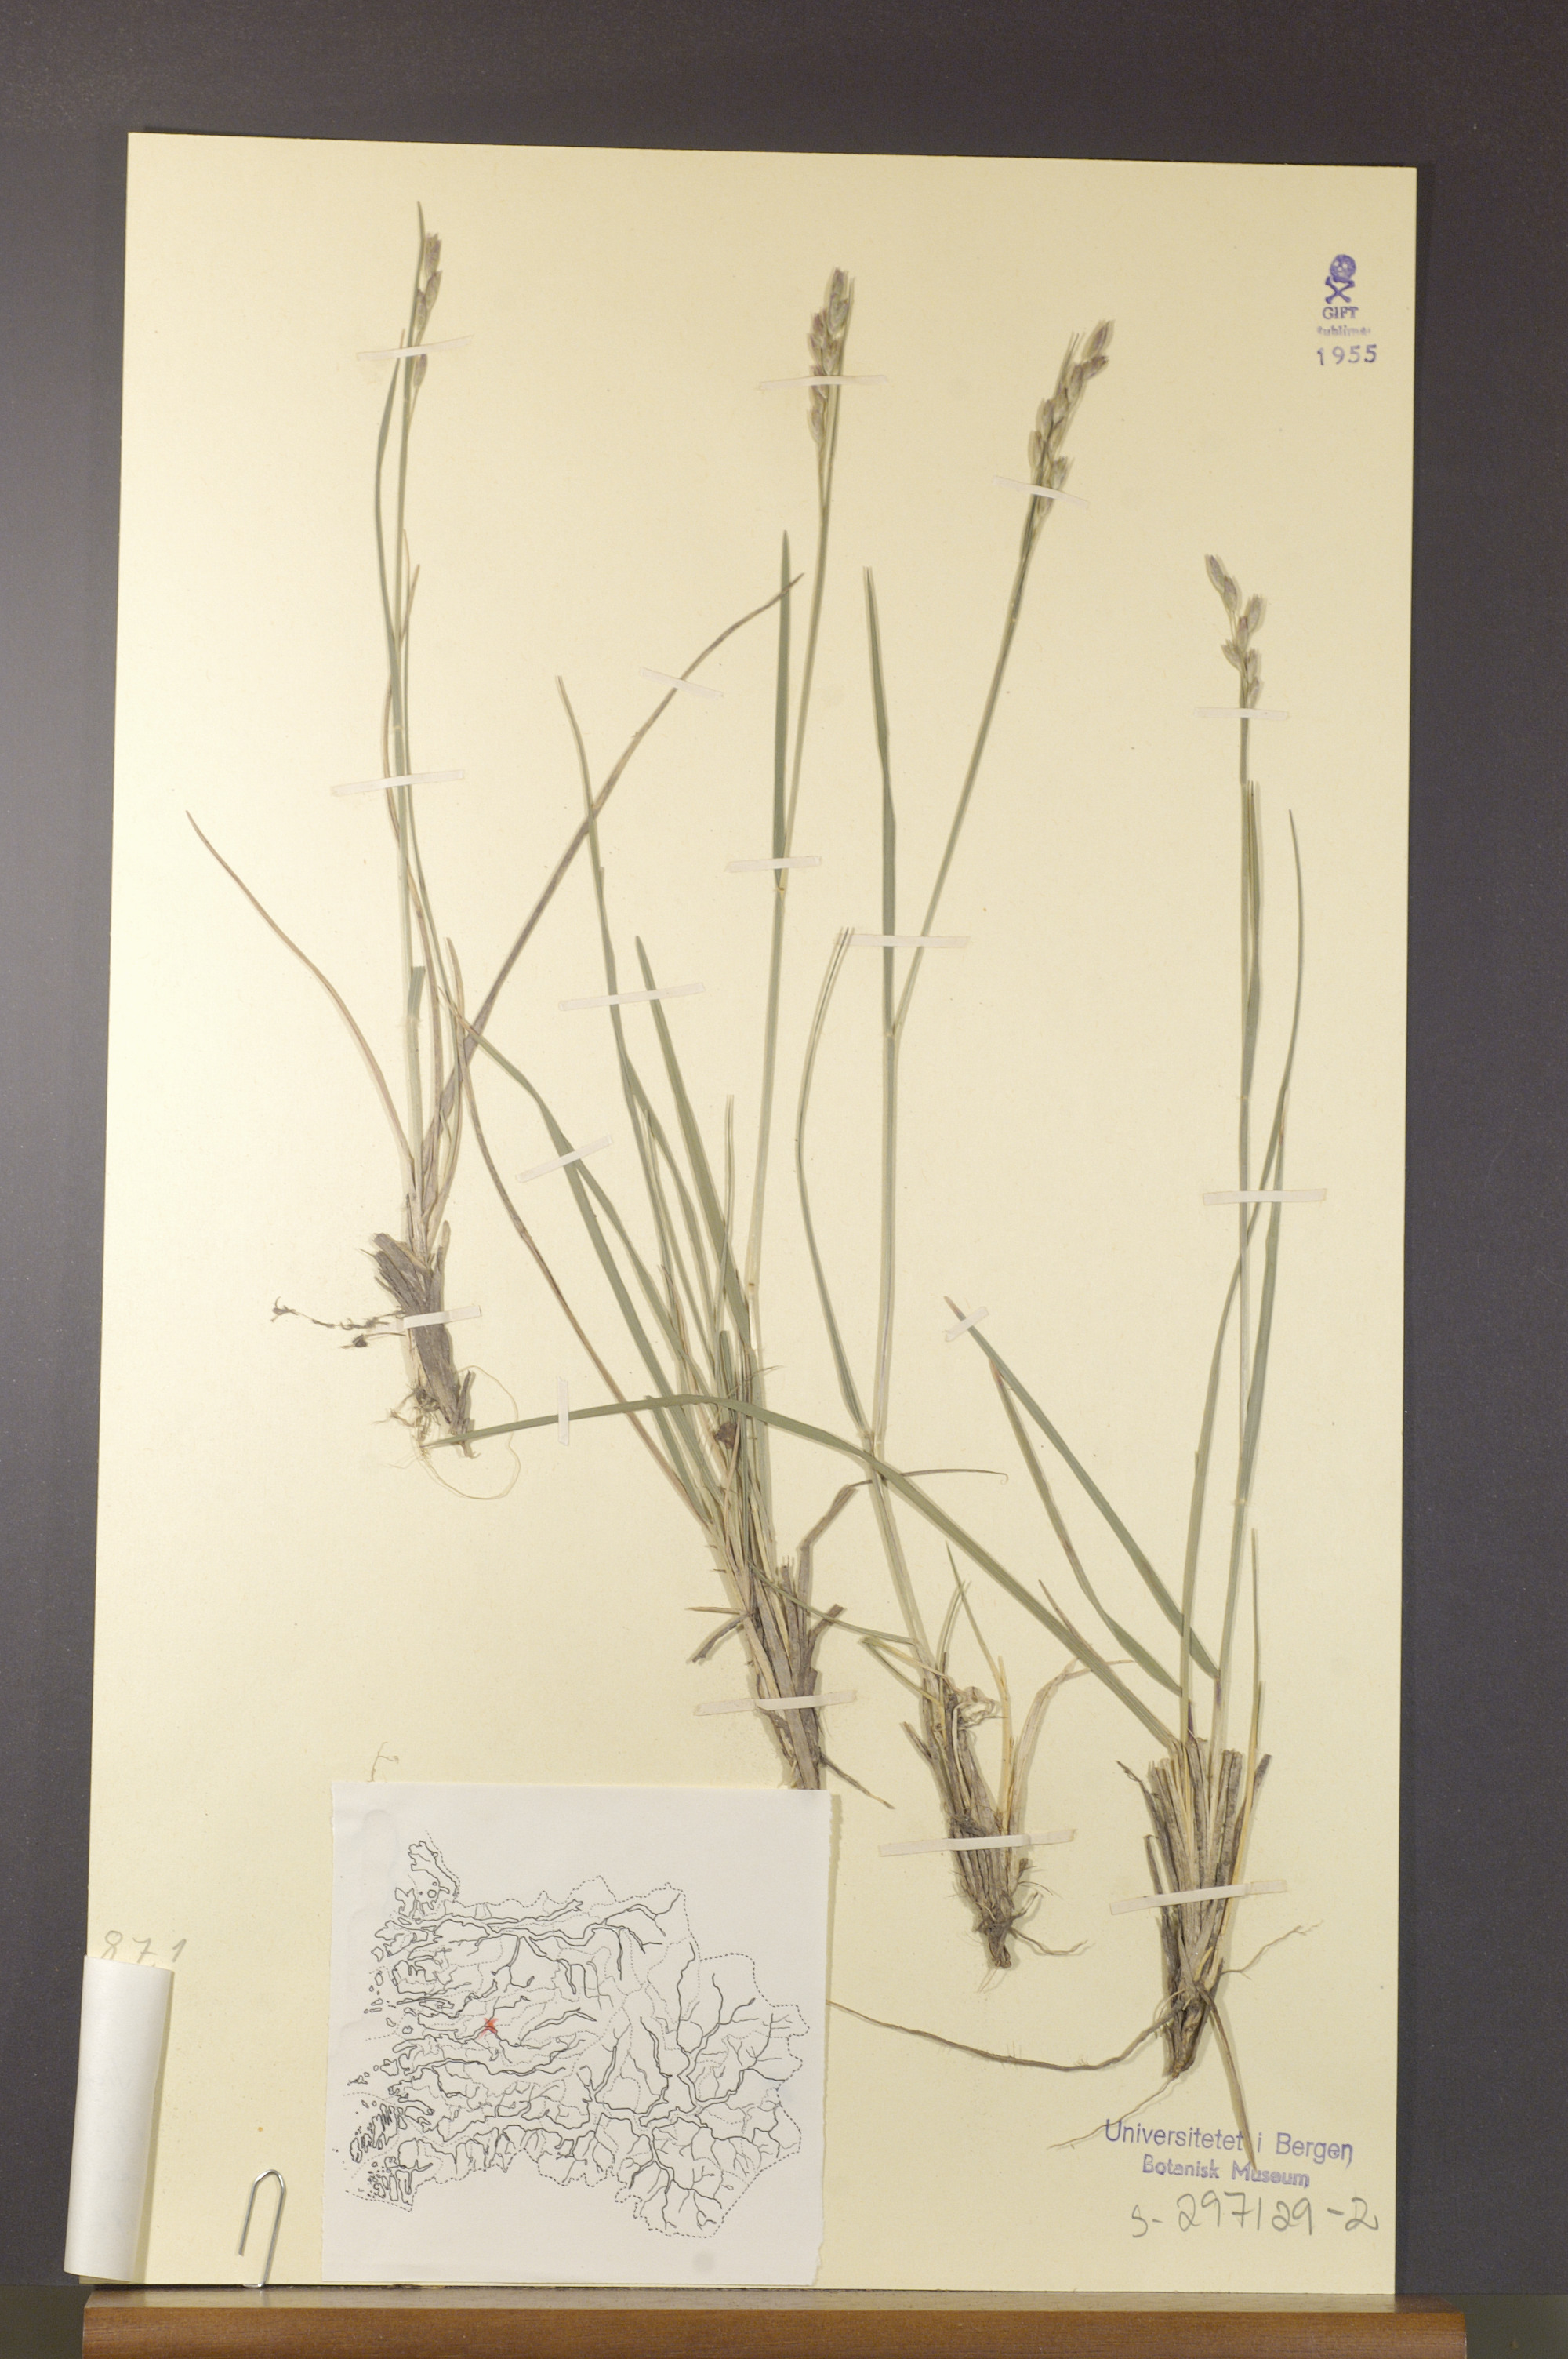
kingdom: Plantae
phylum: Tracheophyta
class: Liliopsida
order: Poales
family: Poaceae
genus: Danthonia
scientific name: Danthonia decumbens
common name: Common heathgrass
